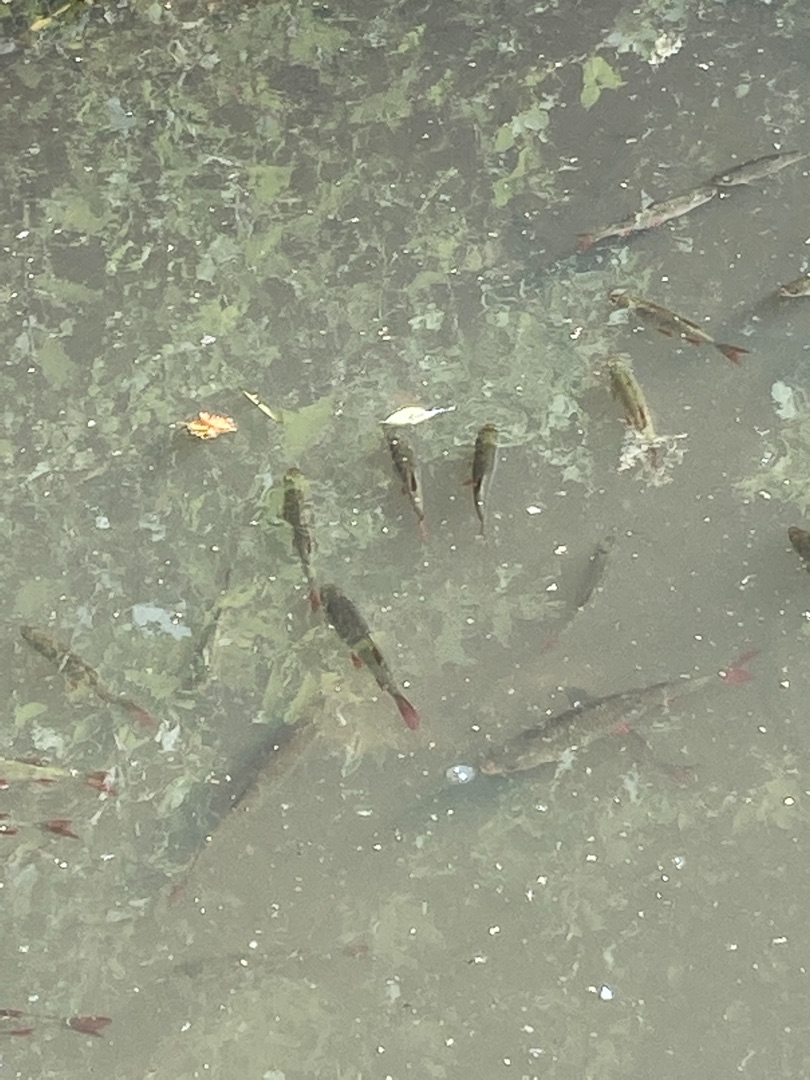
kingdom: Animalia
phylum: Chordata
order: Cypriniformes
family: Cyprinidae
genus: Scardinius
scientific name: Scardinius erythrophthalmus
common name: Rudskalle
